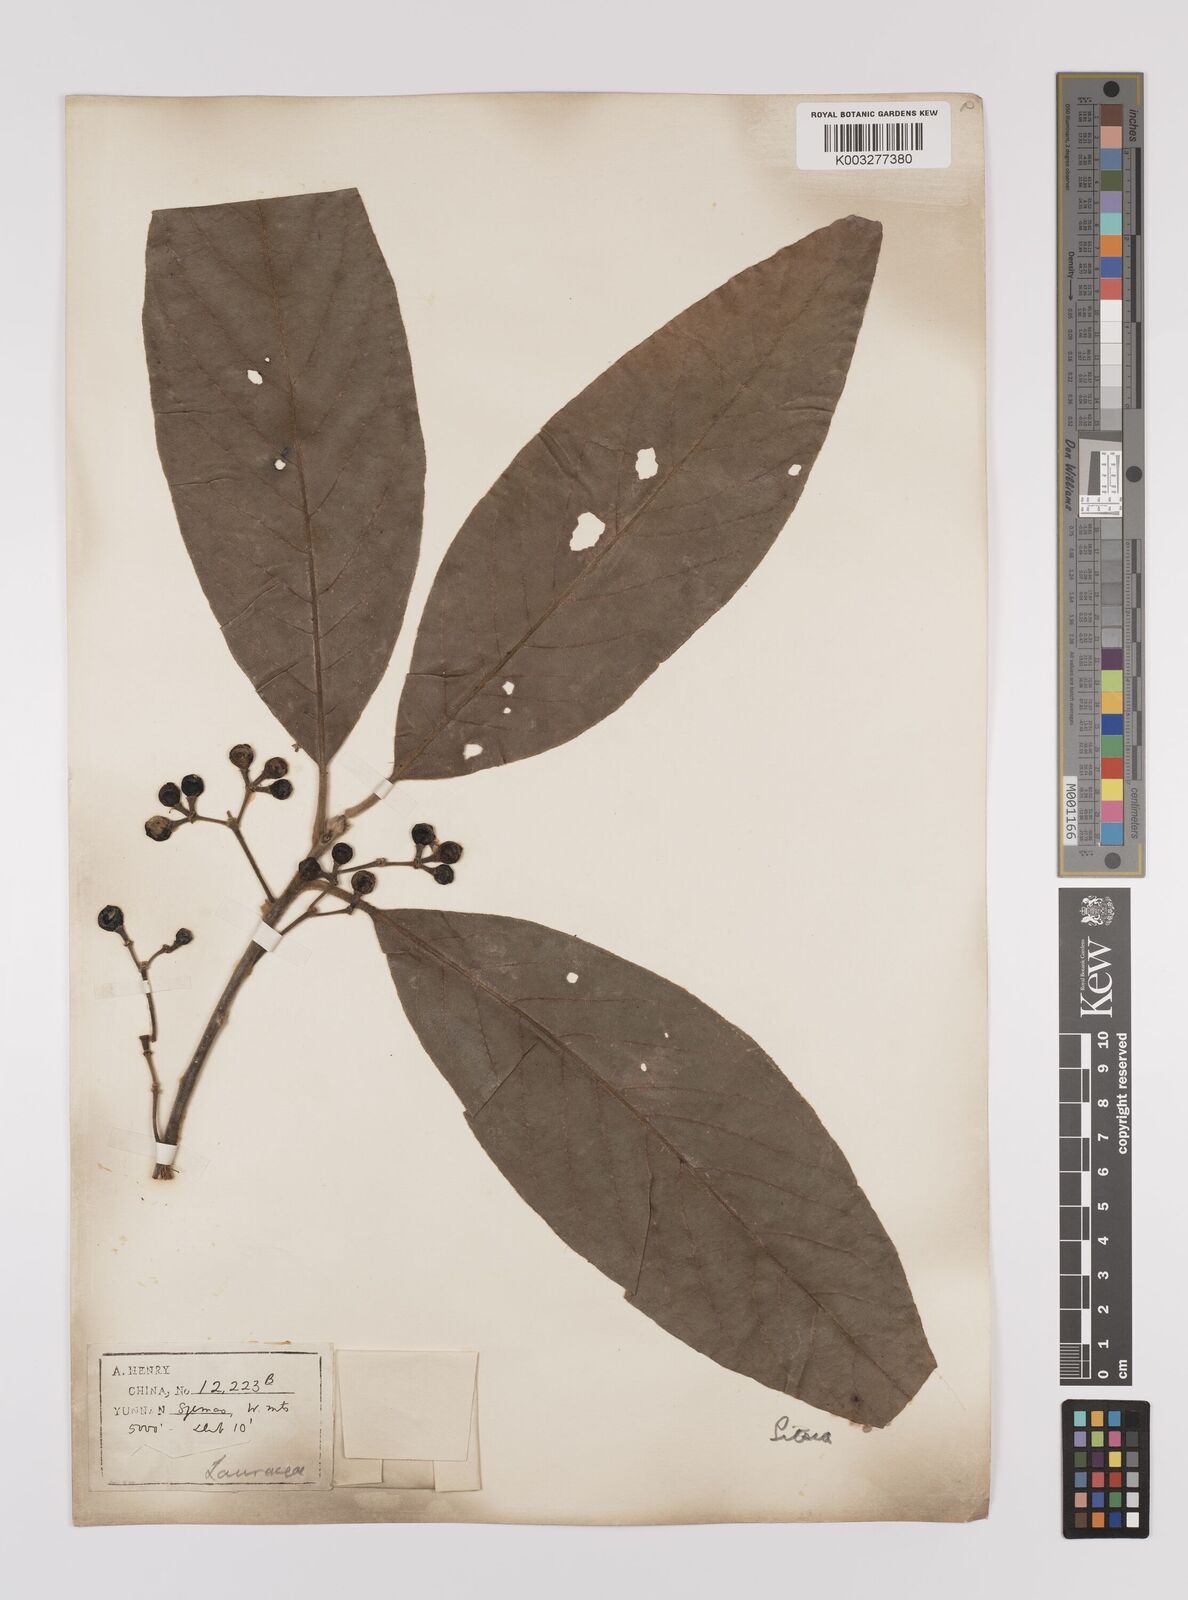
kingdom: Plantae
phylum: Tracheophyta
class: Magnoliopsida
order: Laurales
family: Lauraceae
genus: Litsea
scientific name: Litsea glutinosa
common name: Indian-laurel
